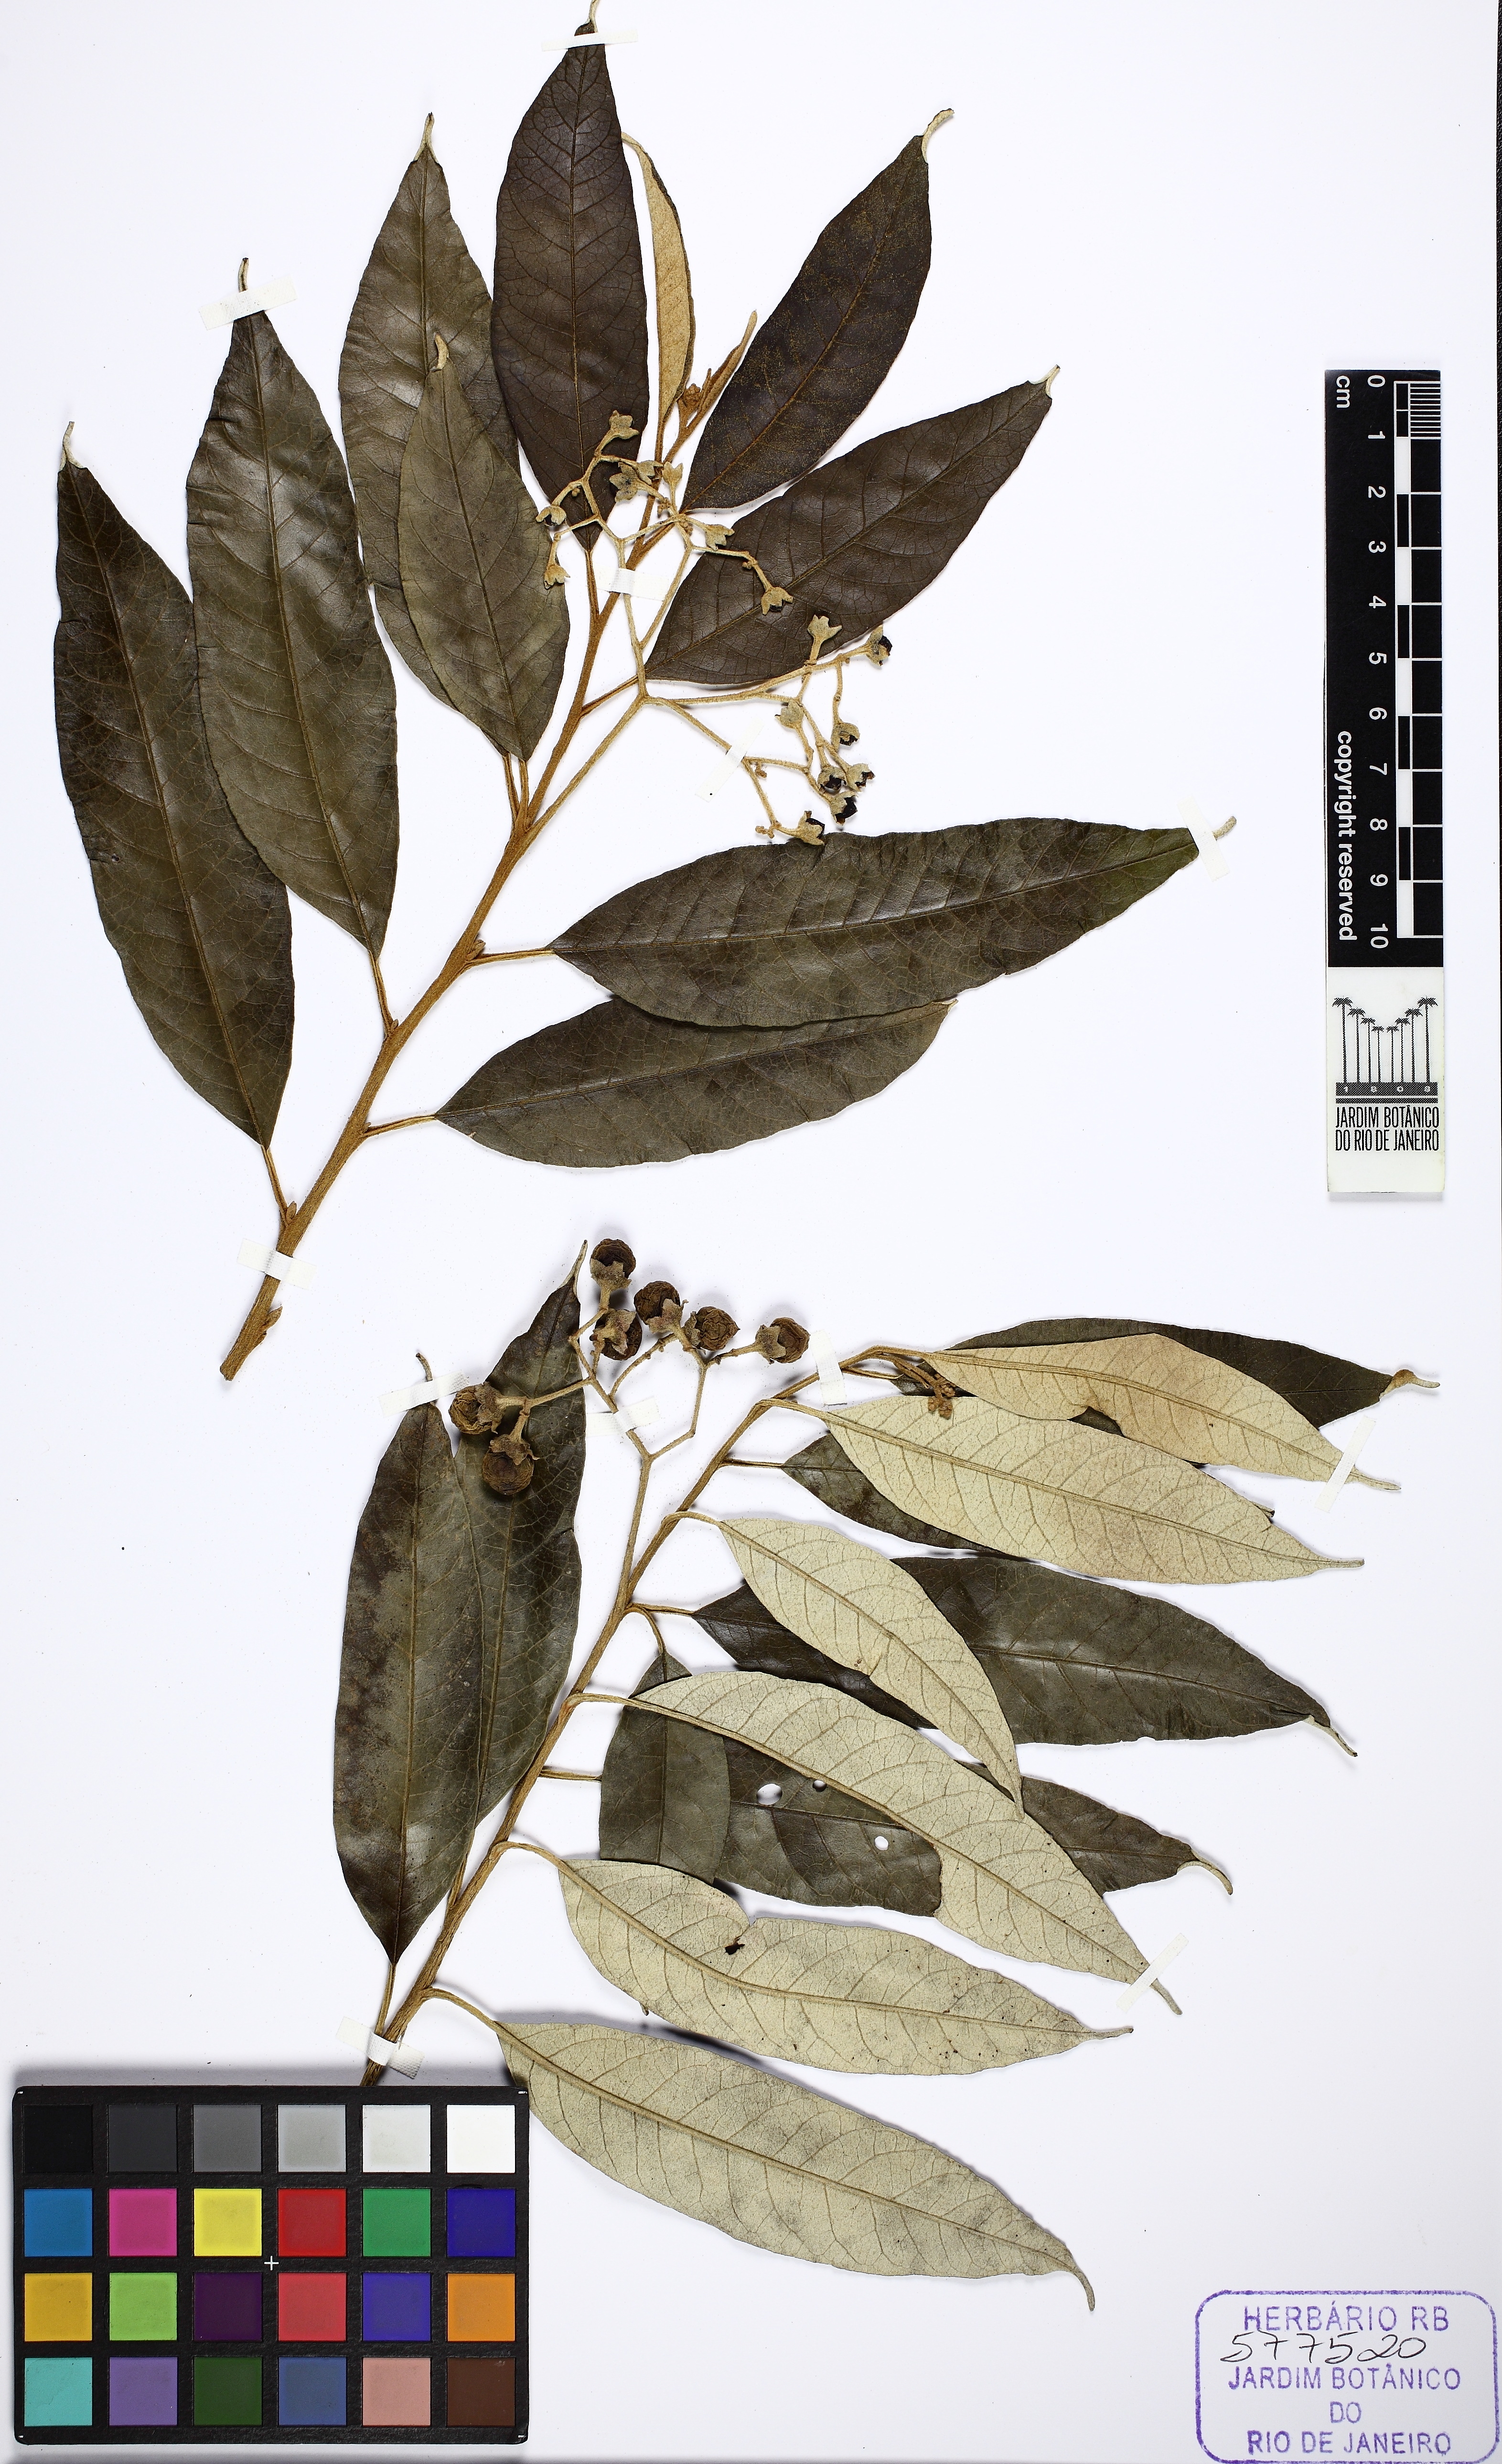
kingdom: Plantae
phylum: Tracheophyta
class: Magnoliopsida
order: Solanales
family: Solanaceae
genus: Solanum
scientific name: Solanum cinnamomeum
